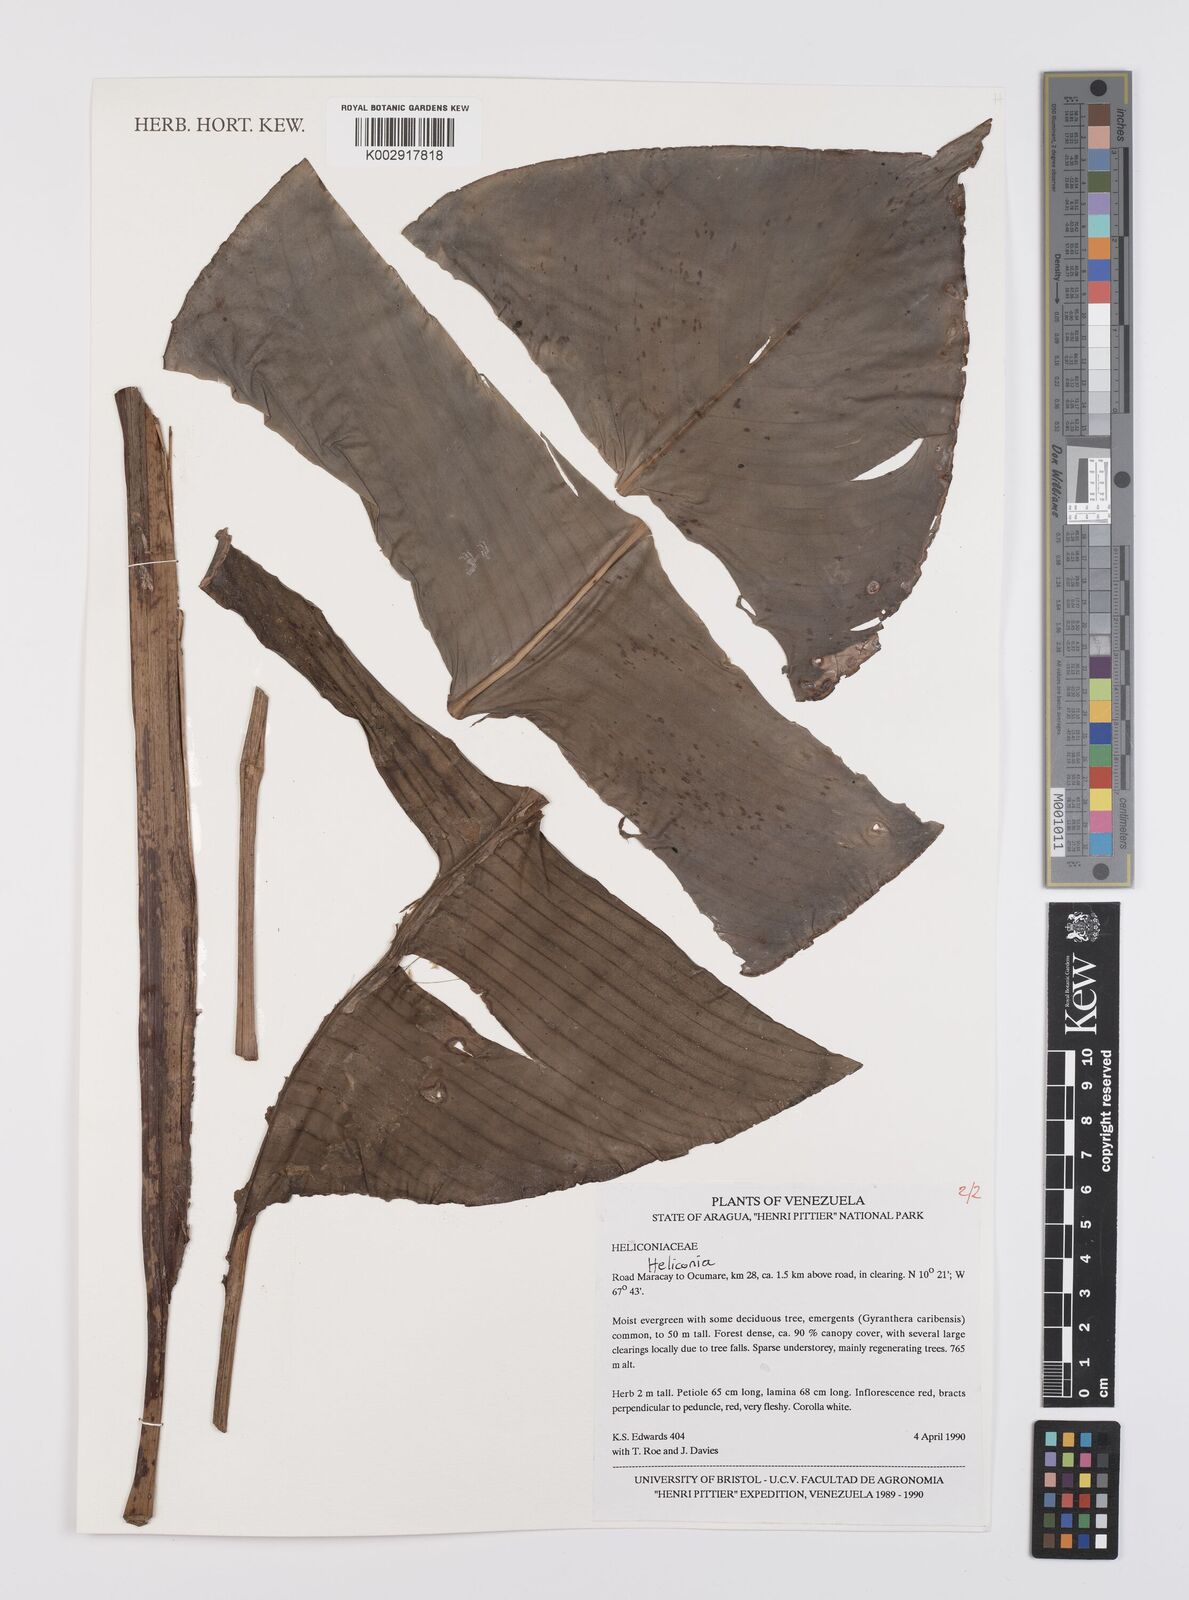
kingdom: Plantae
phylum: Tracheophyta
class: Liliopsida
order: Zingiberales
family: Heliconiaceae
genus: Heliconia
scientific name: Heliconia
